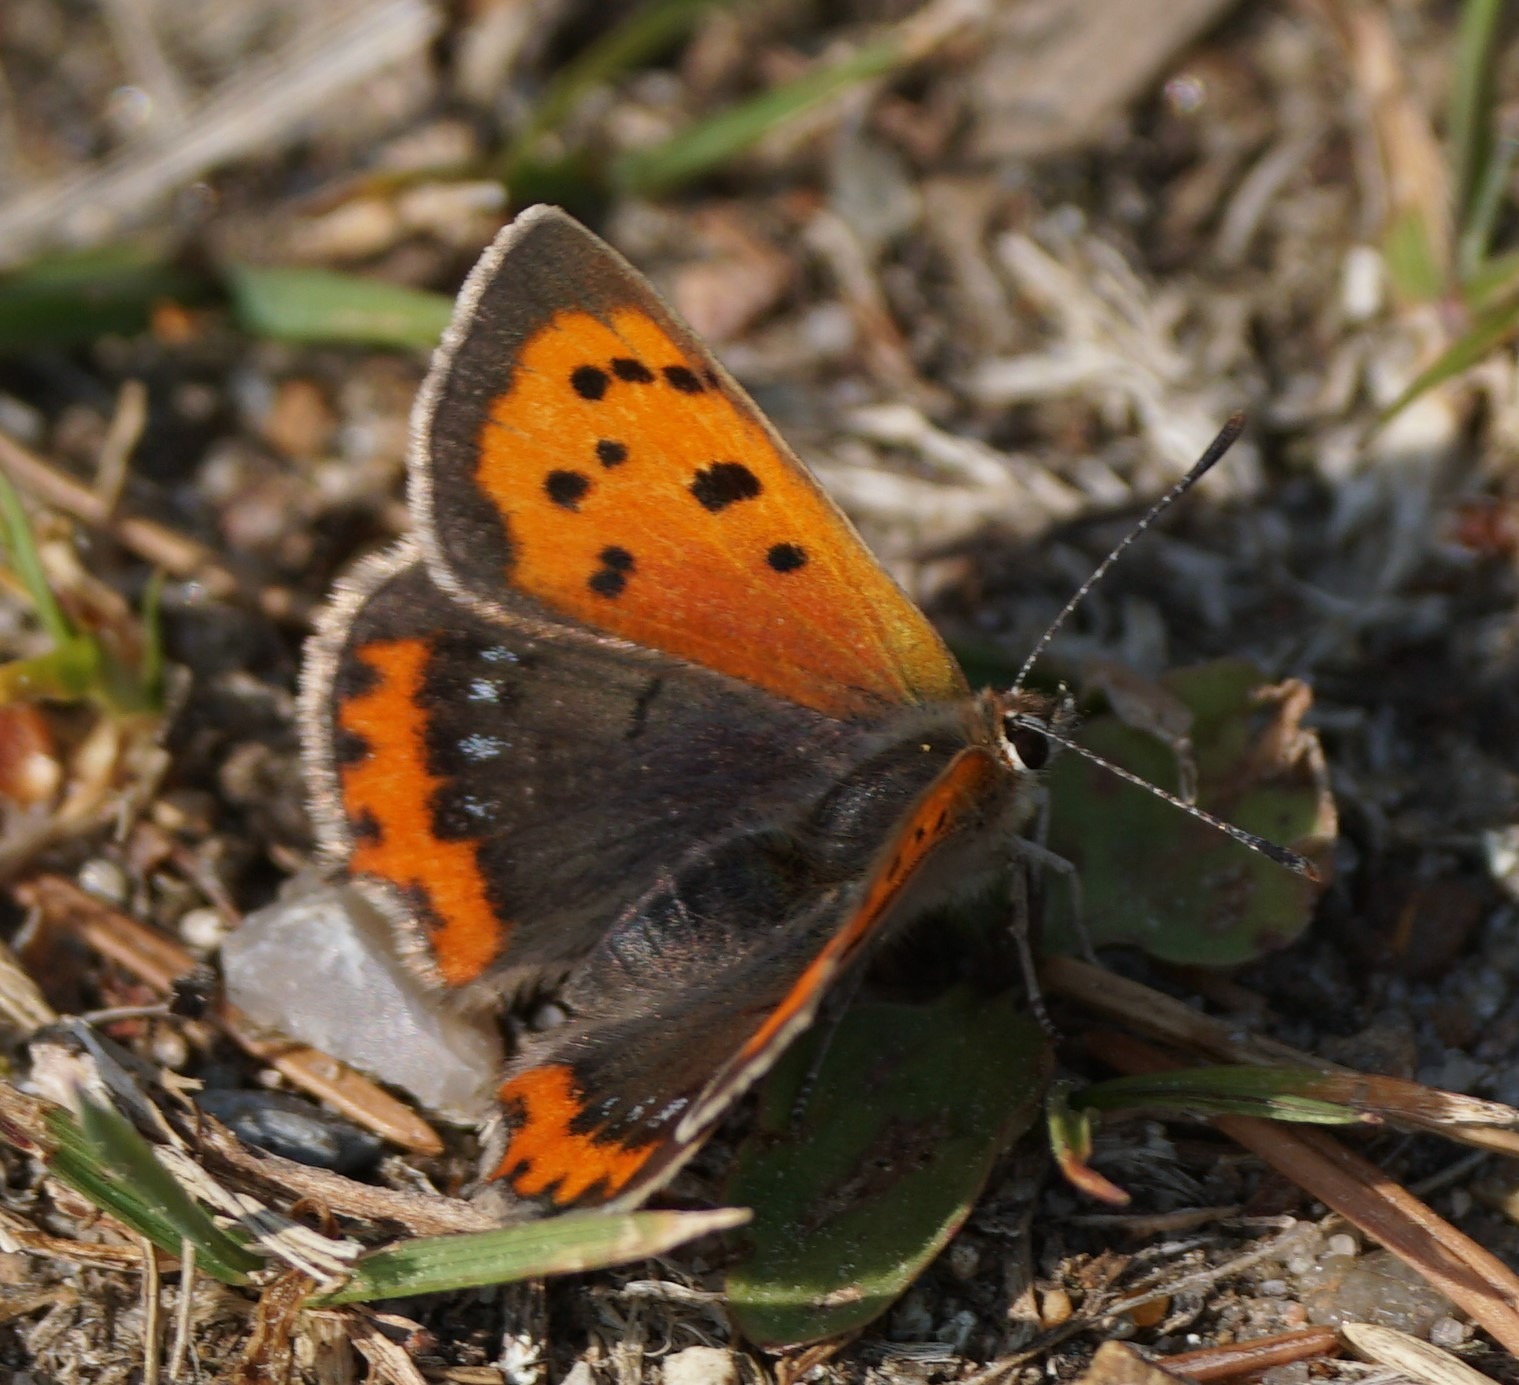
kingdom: Animalia
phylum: Arthropoda
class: Insecta
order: Lepidoptera
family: Lycaenidae
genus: Lycaena
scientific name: Lycaena phlaeas
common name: Lille ildfugl
